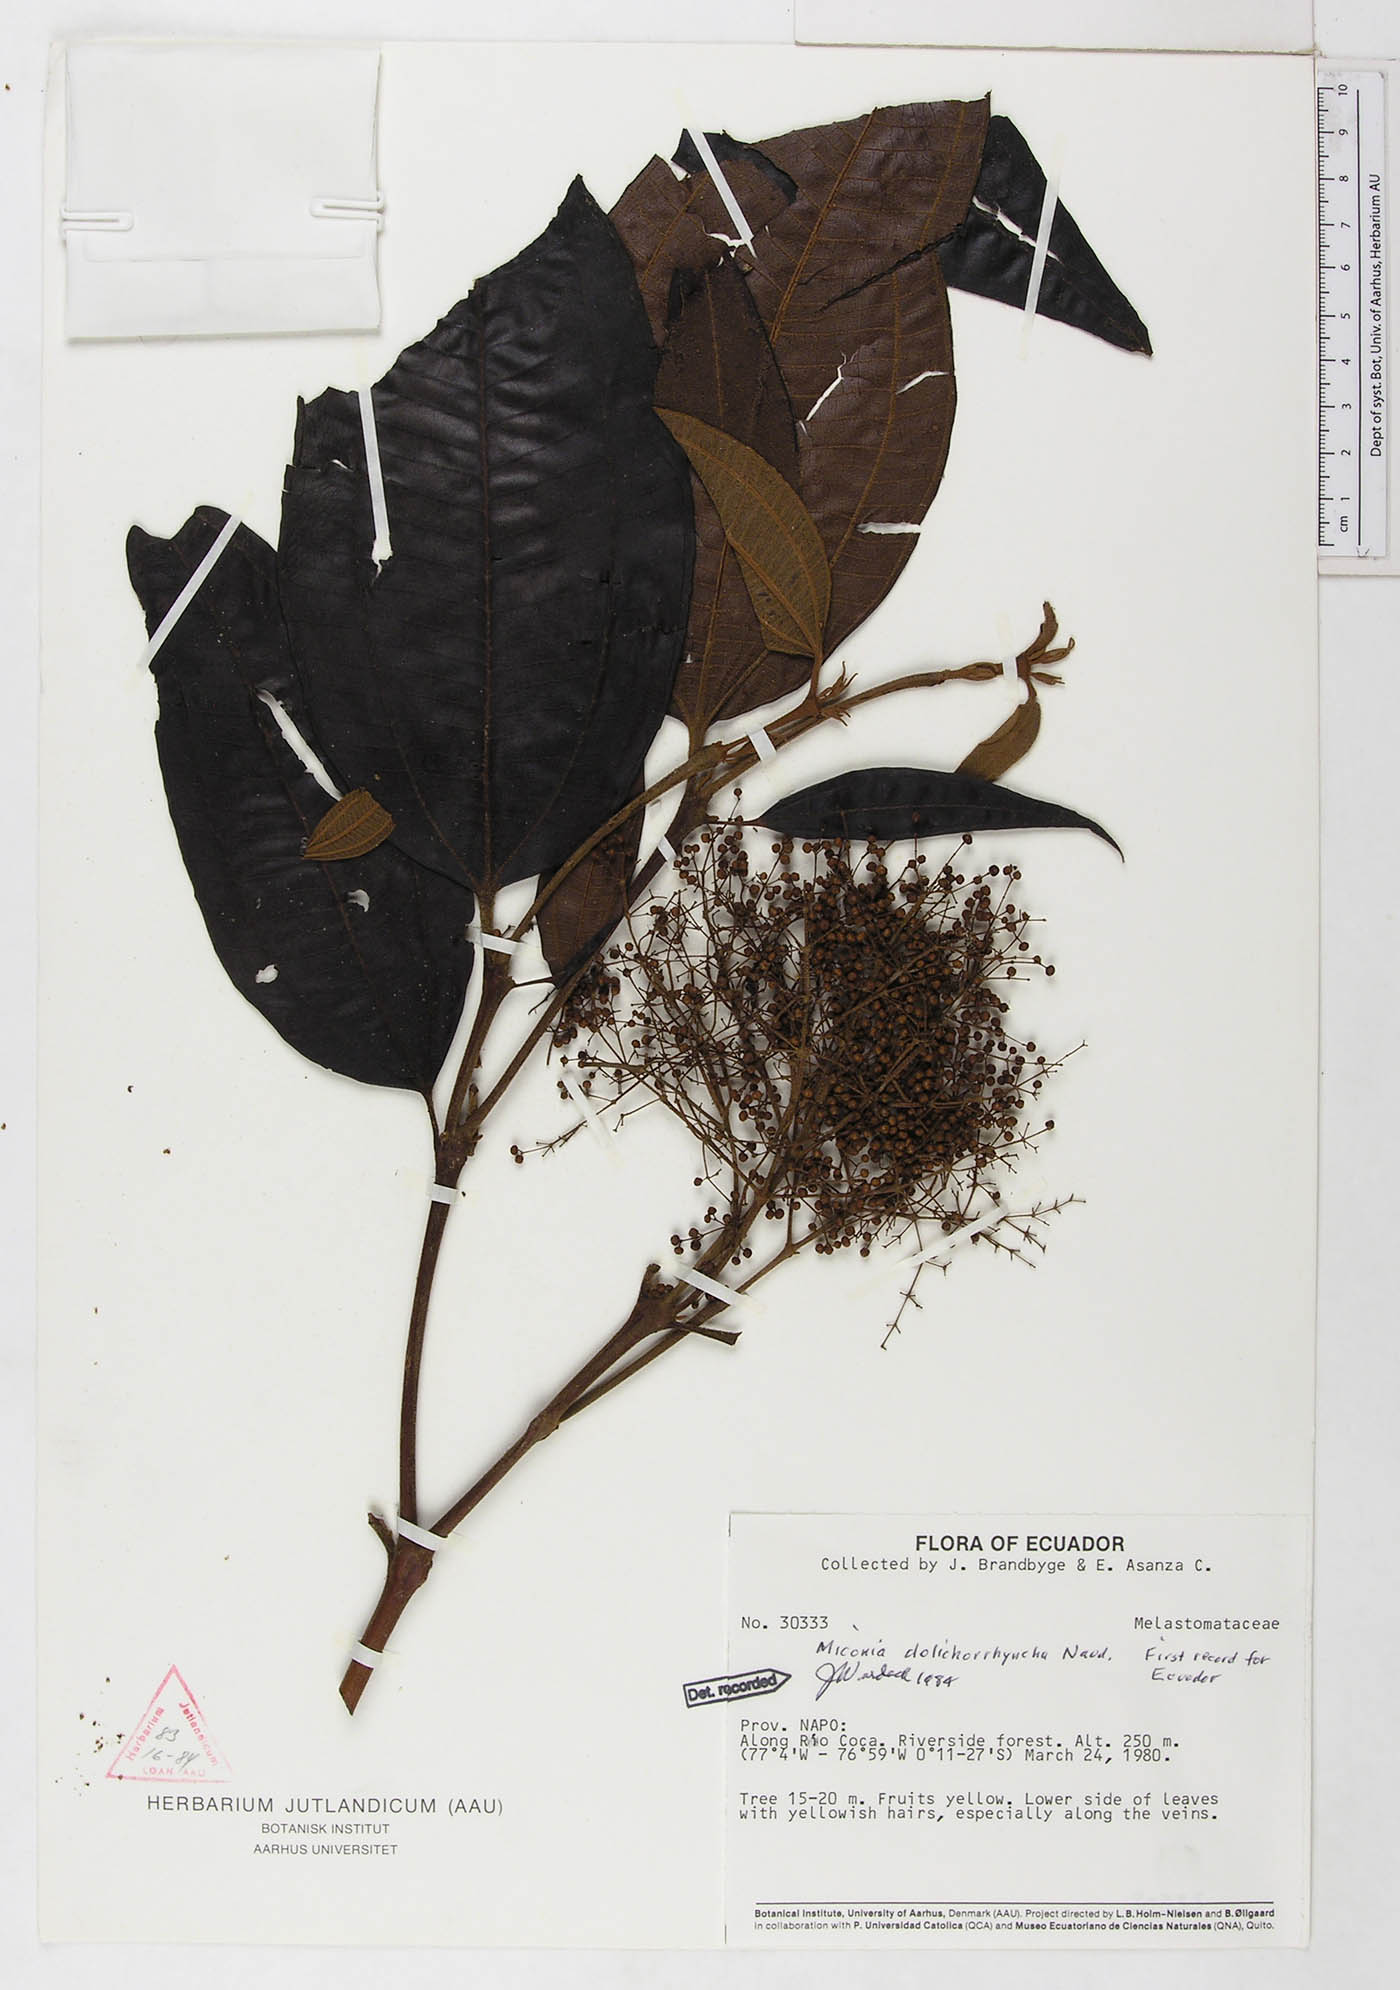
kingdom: Plantae
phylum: Tracheophyta
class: Magnoliopsida
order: Myrtales
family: Melastomataceae
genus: Miconia
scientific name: Miconia dolichorrhyncha
